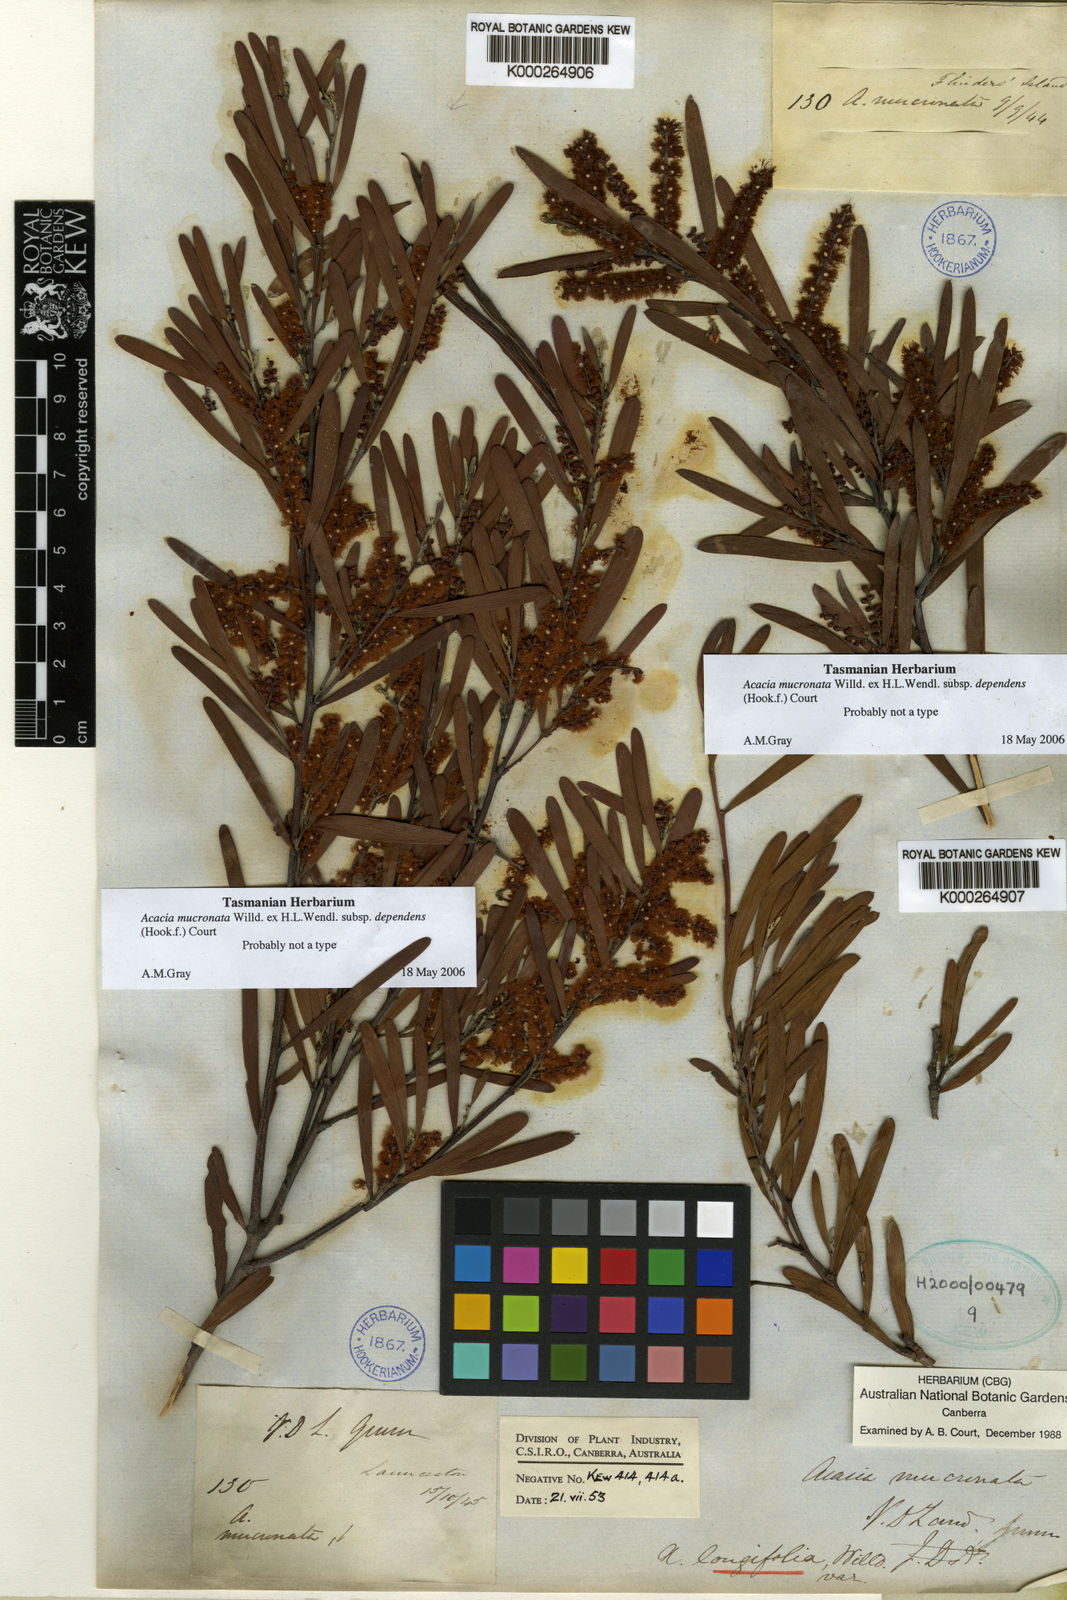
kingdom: Plantae
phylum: Tracheophyta
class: Magnoliopsida
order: Fabales
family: Fabaceae
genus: Acacia
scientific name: Acacia mucronata
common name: Variable sallow wattle
